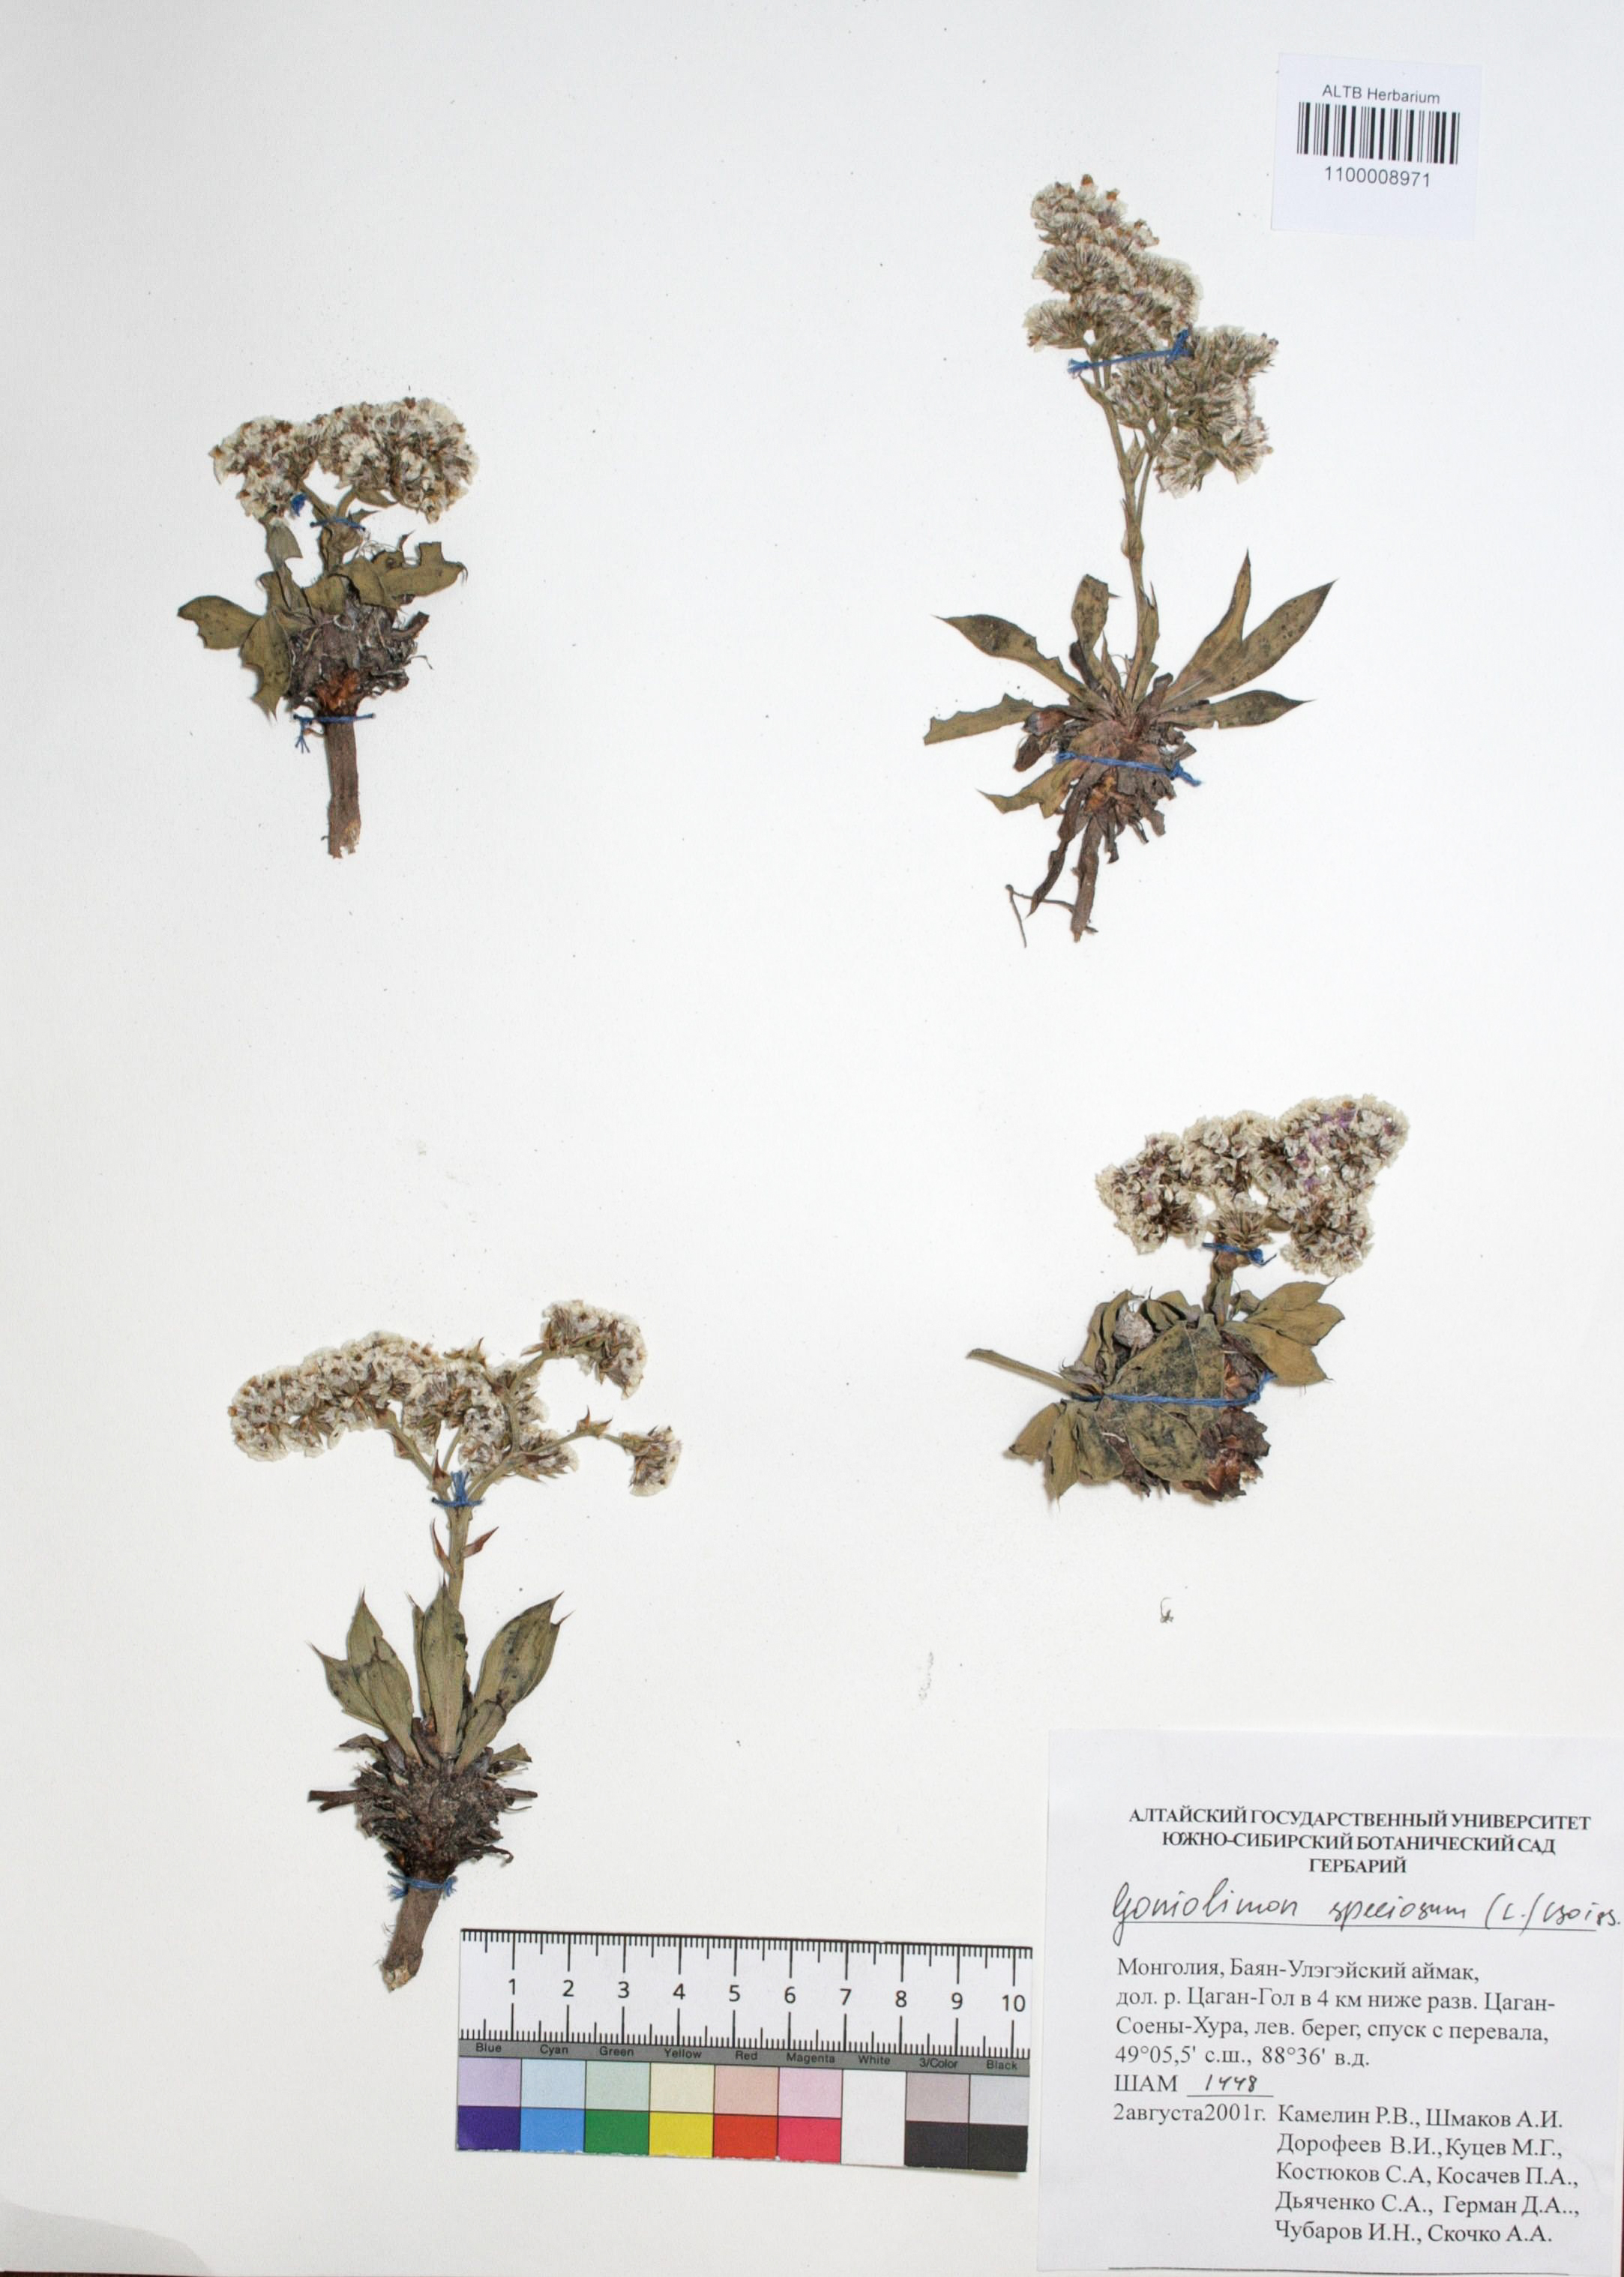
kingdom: Plantae
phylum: Tracheophyta
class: Magnoliopsida
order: Caryophyllales
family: Plumbaginaceae
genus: Goniolimon
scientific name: Goniolimon speciosum
